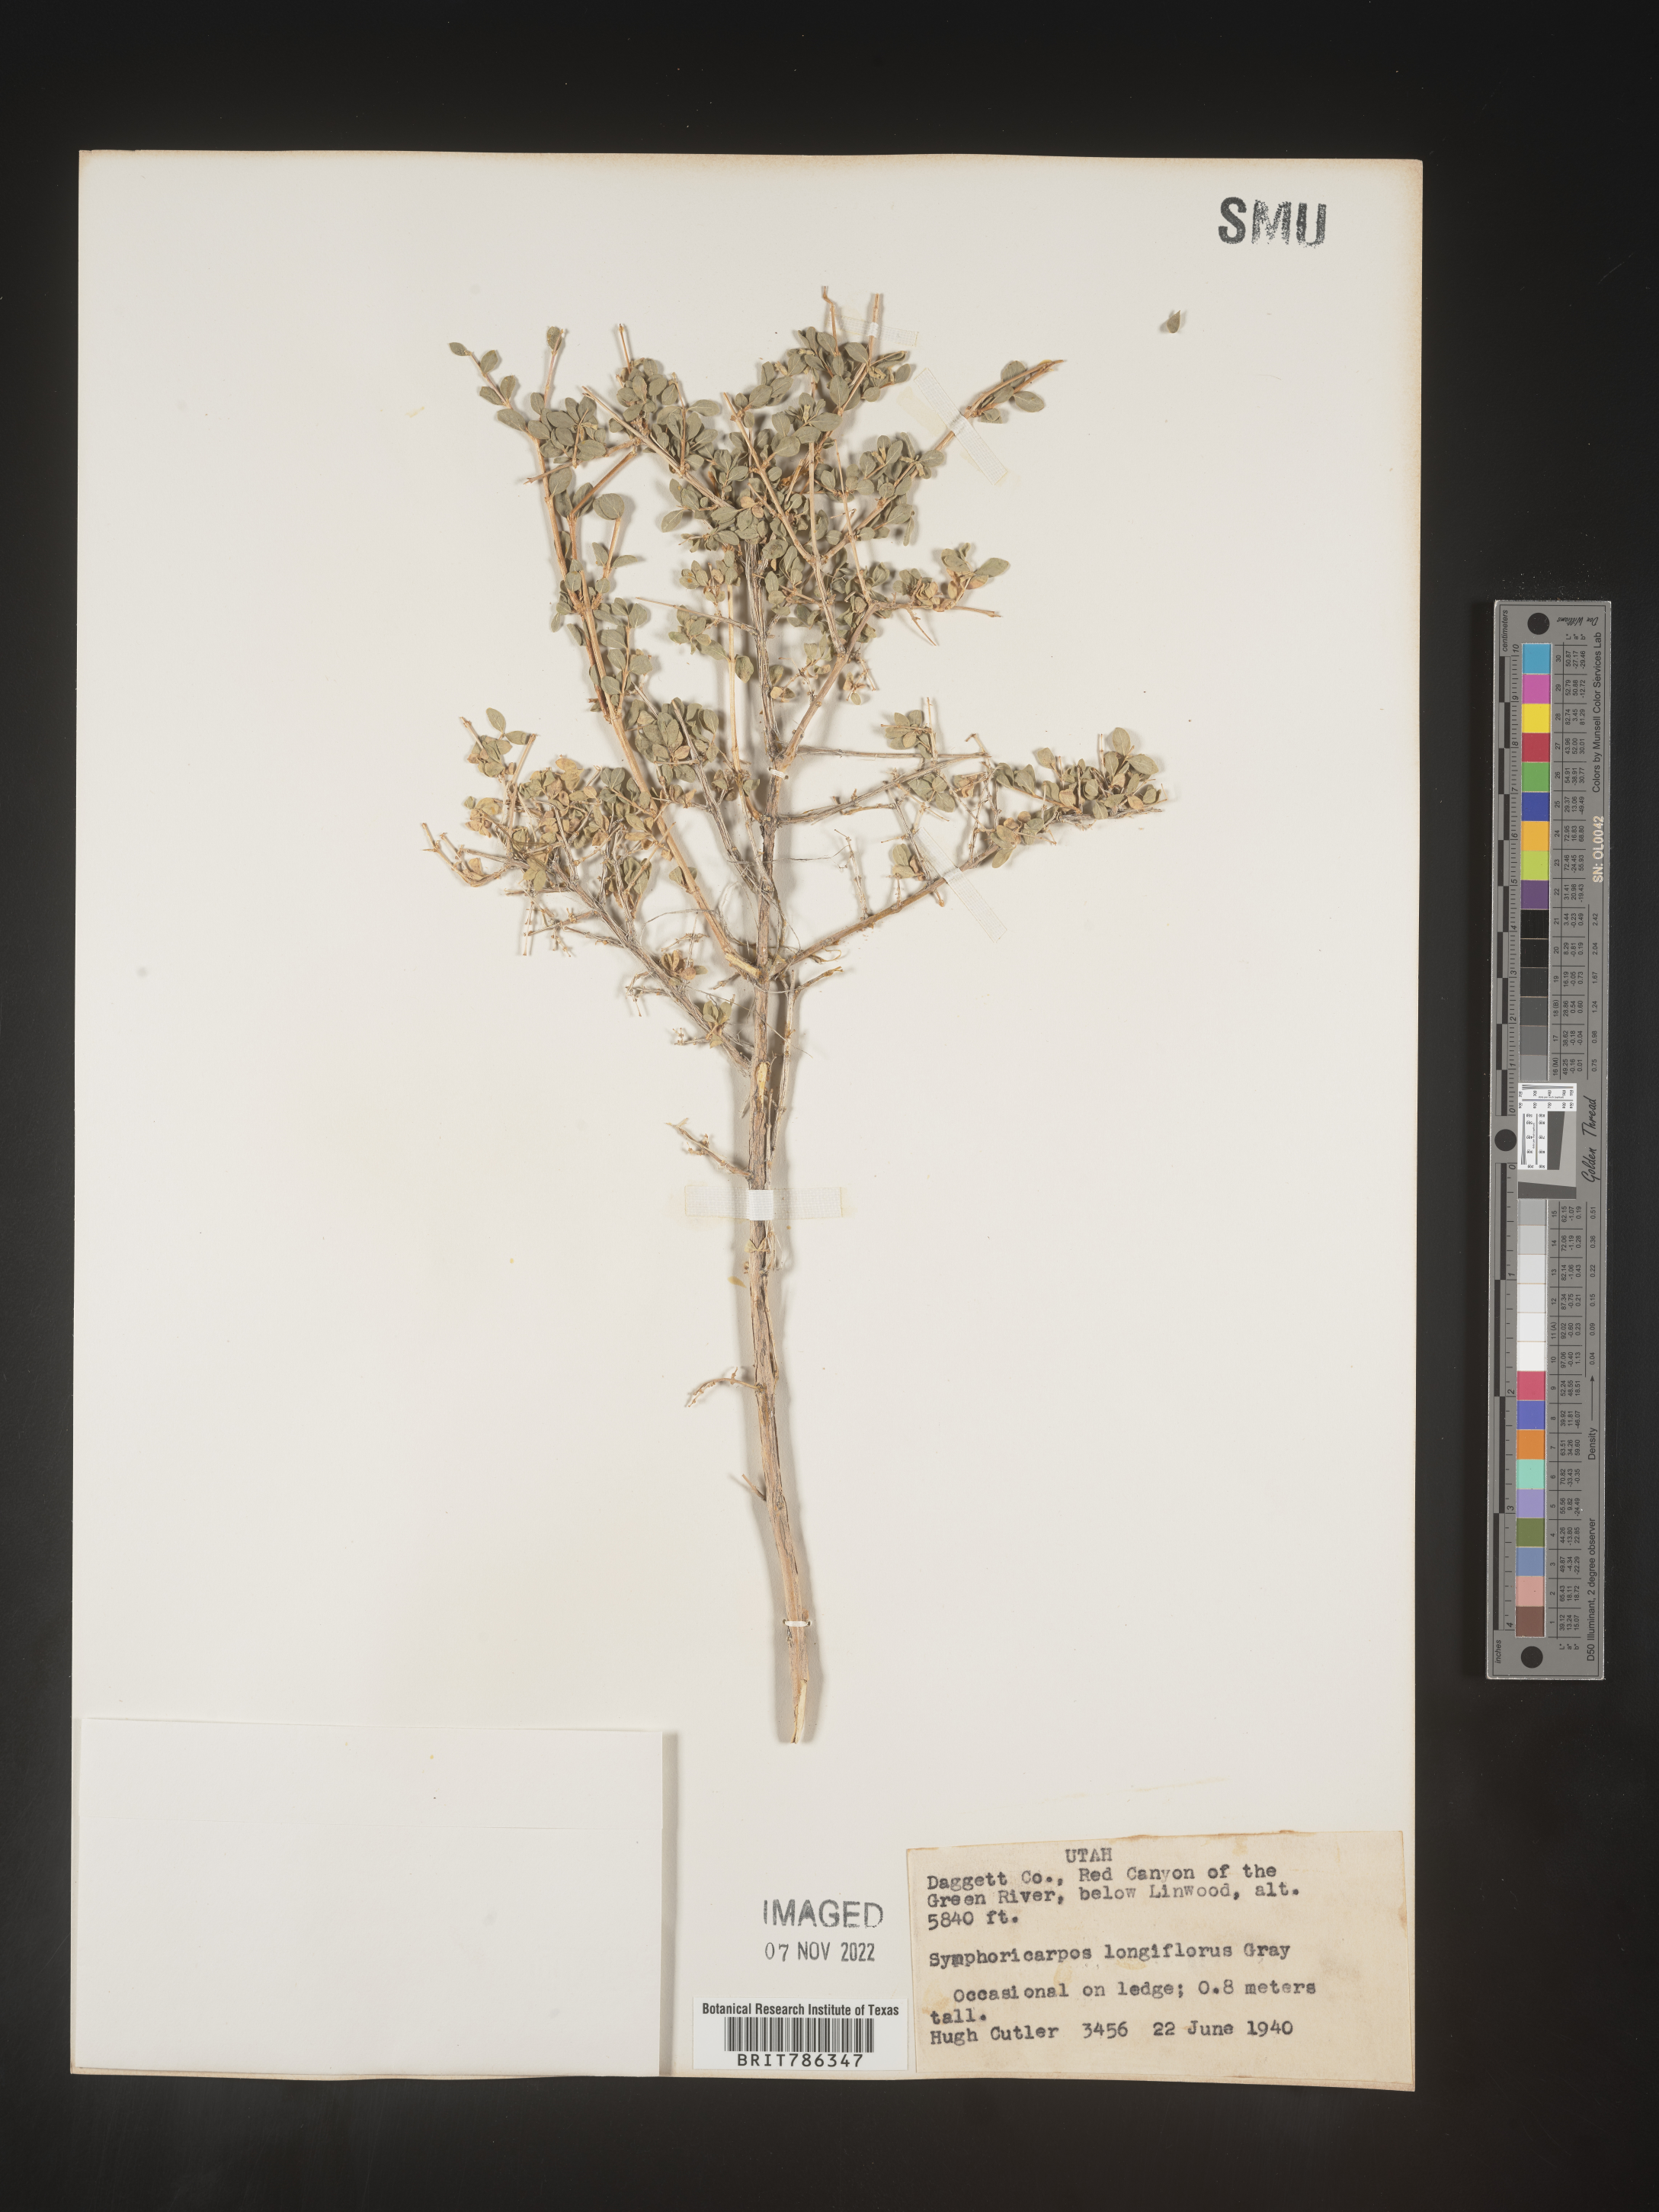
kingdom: Plantae
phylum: Tracheophyta
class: Magnoliopsida
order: Dipsacales
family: Caprifoliaceae
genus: Symphoricarpos
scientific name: Symphoricarpos
